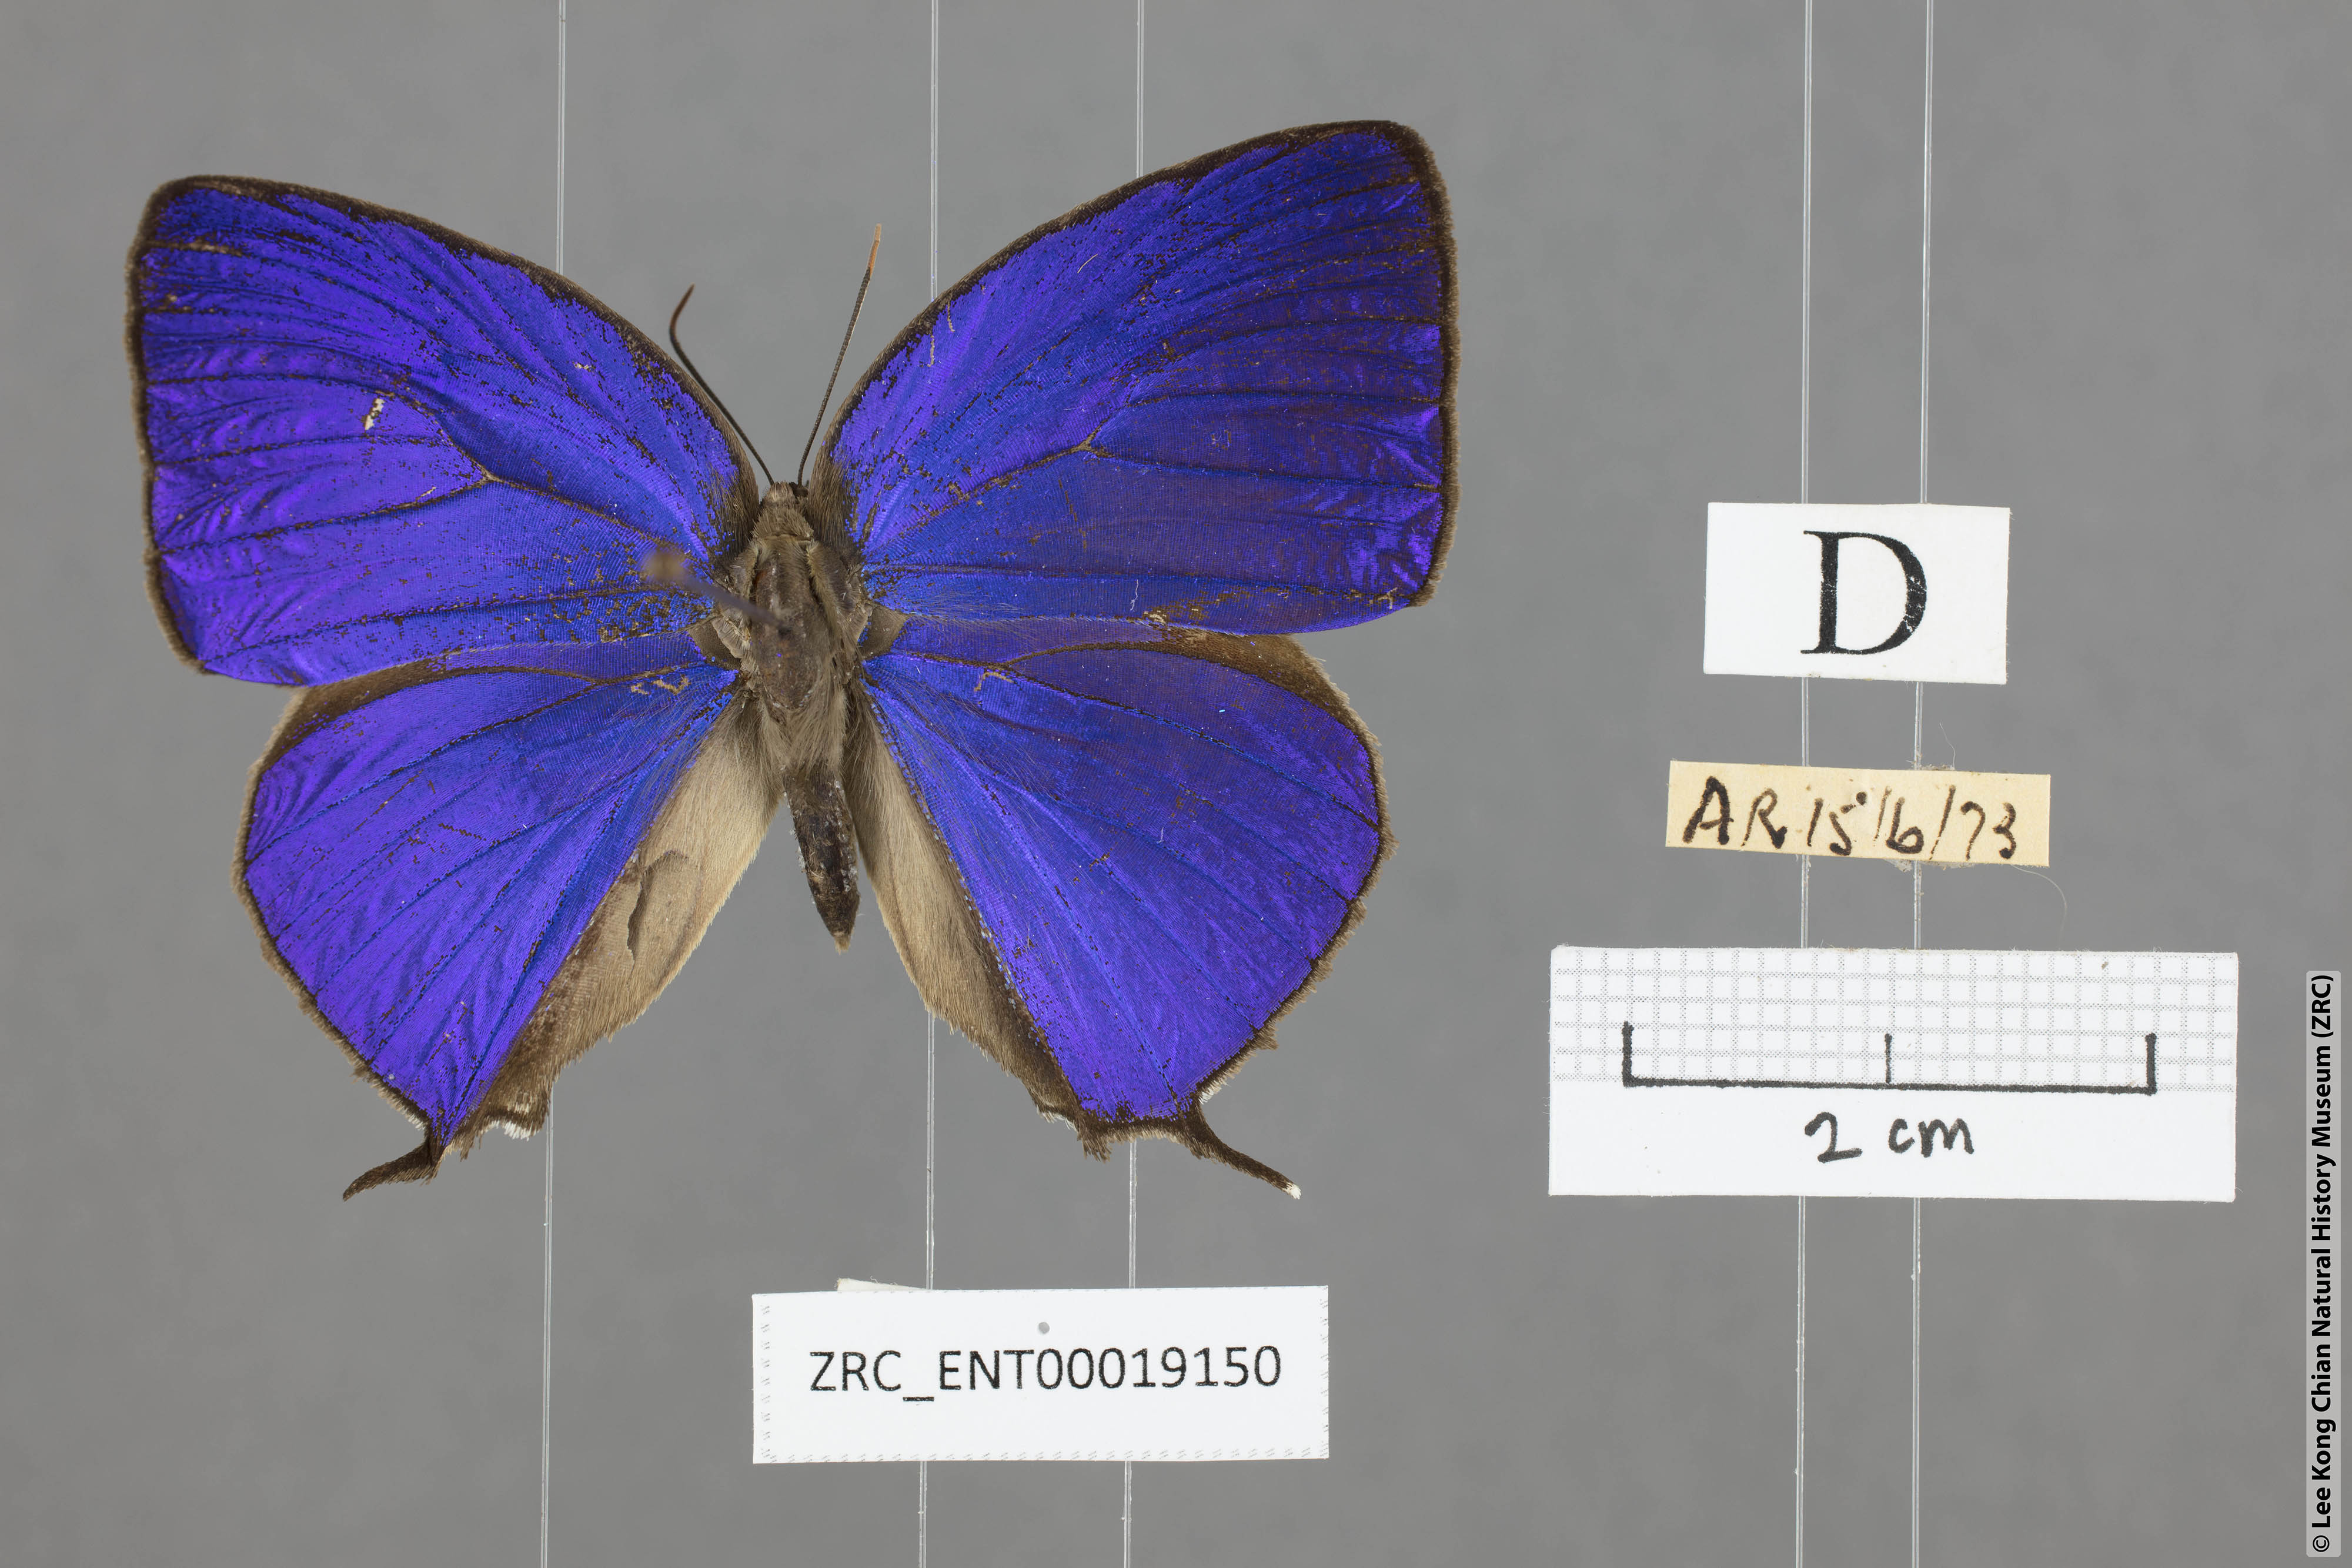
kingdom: Animalia
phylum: Arthropoda
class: Insecta
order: Lepidoptera
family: Lycaenidae
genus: Arhopala
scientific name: Arhopala anthelus
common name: Bushblue
